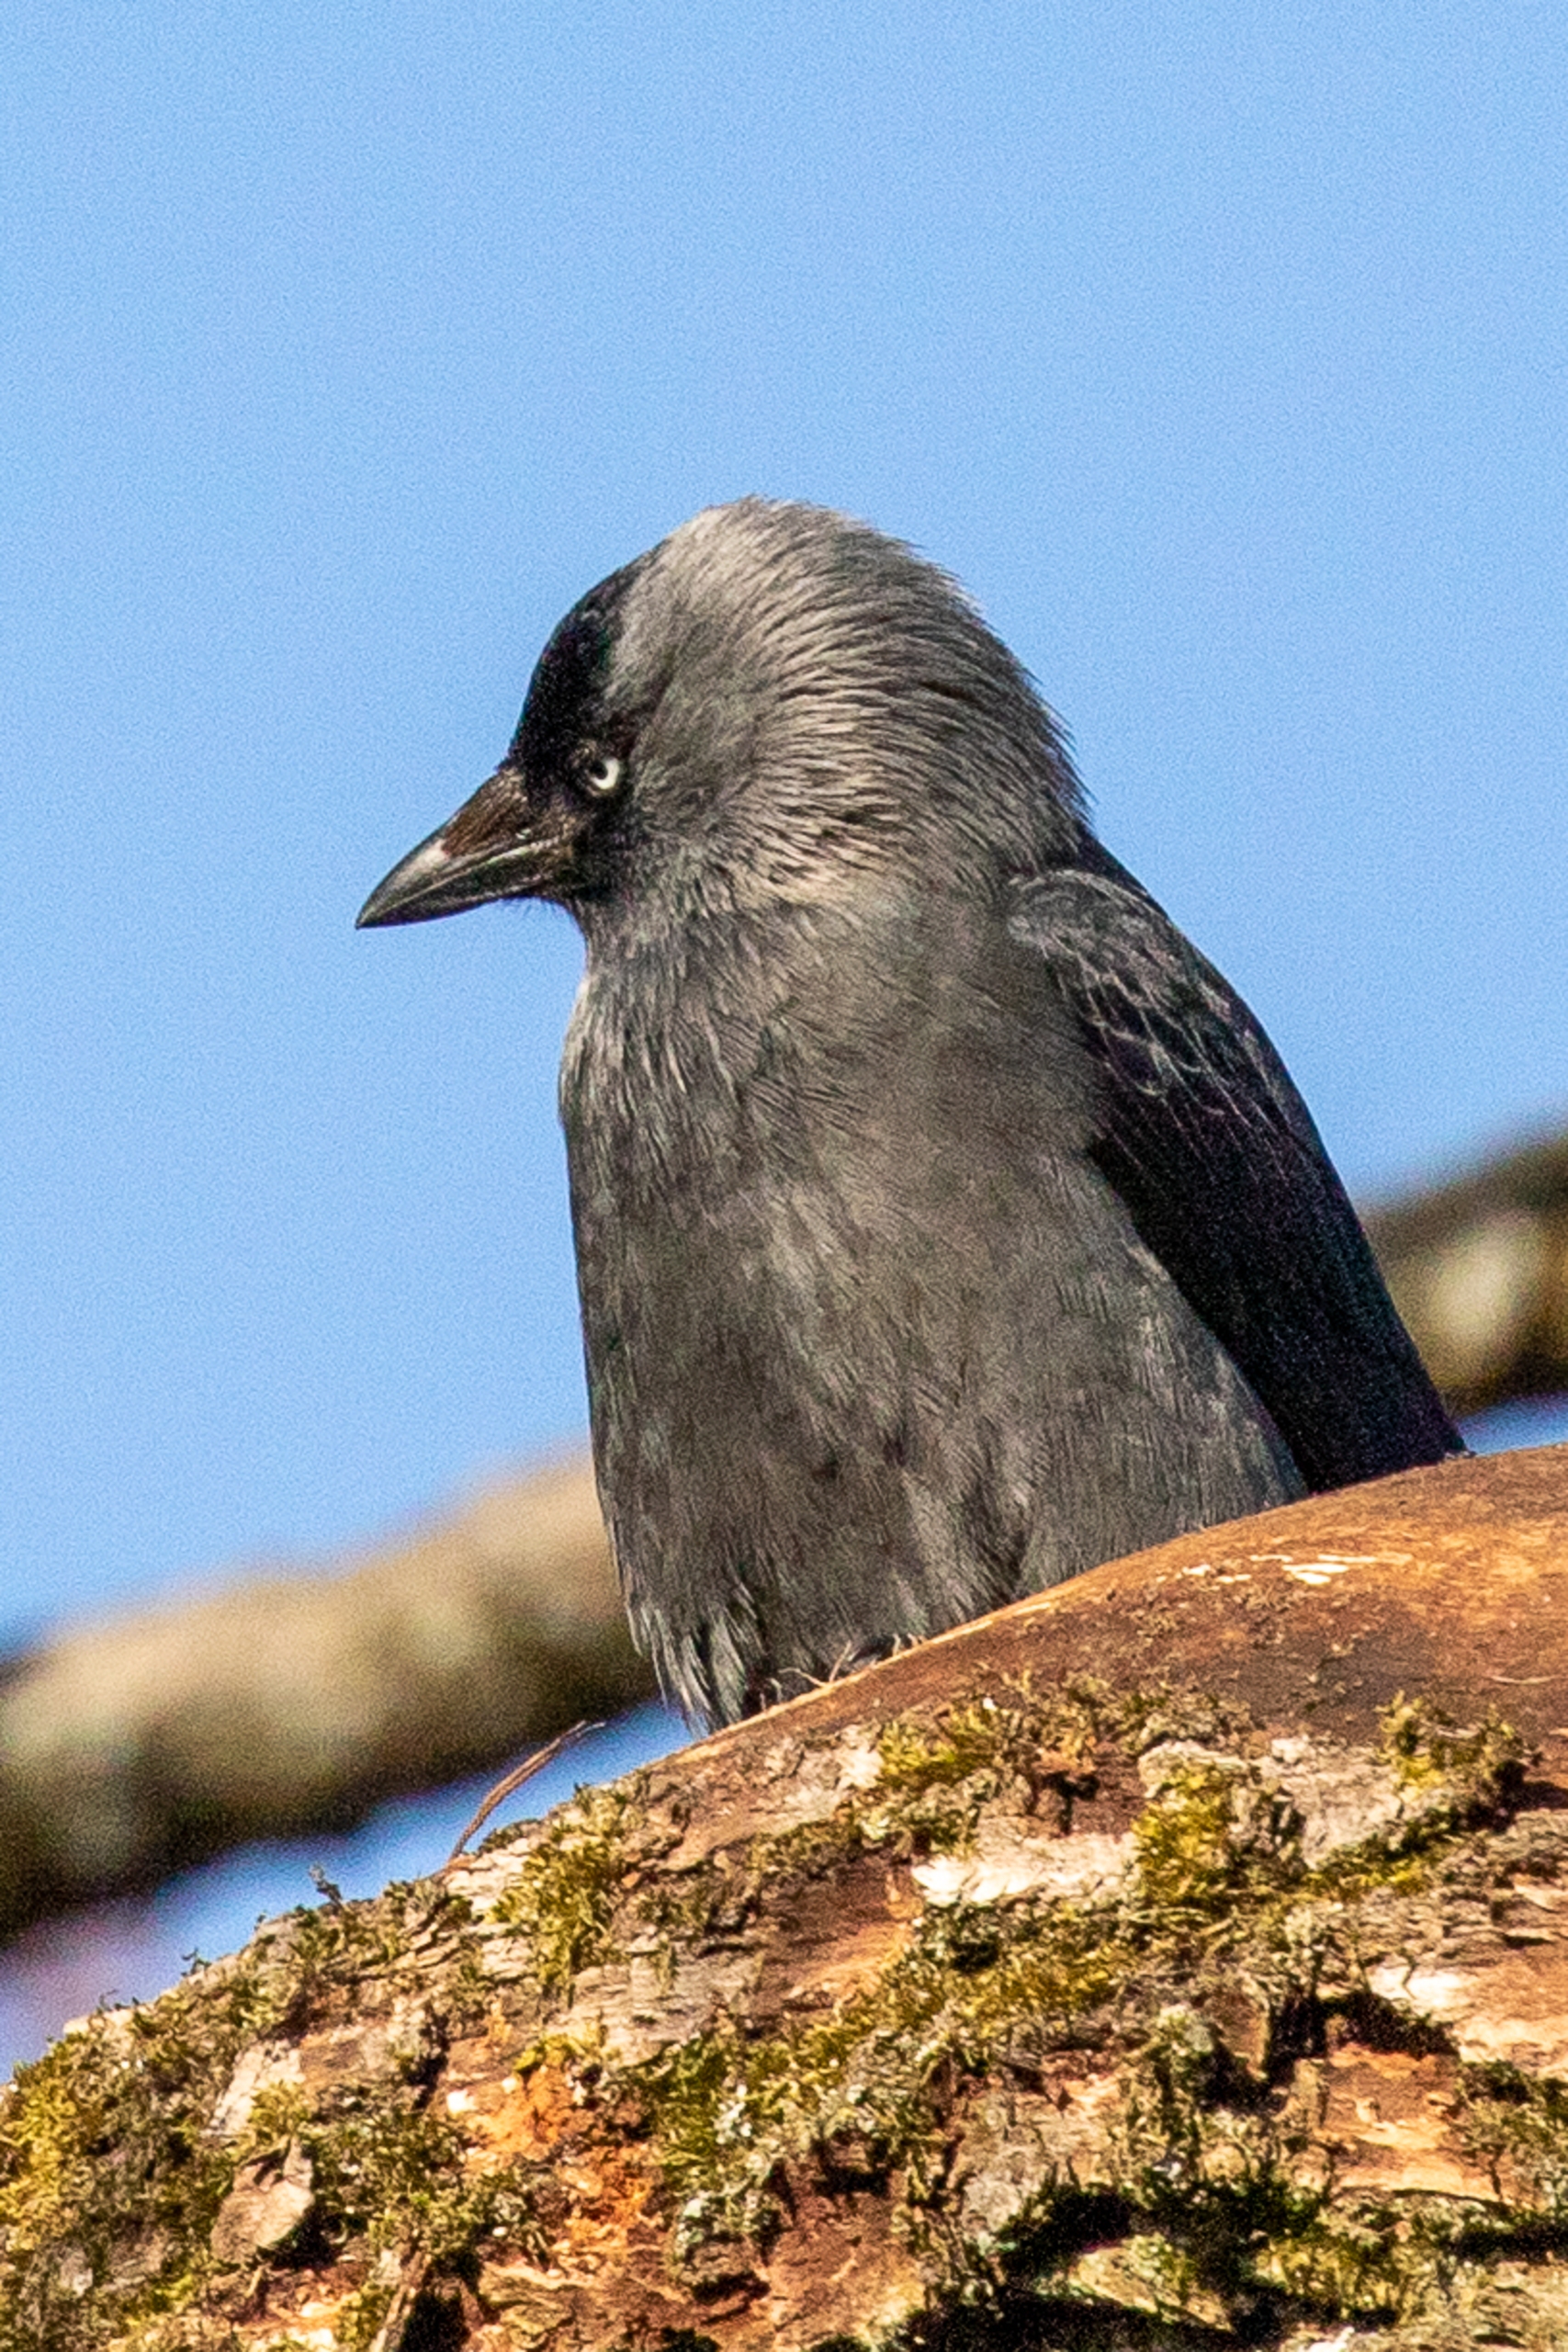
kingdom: Animalia
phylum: Chordata
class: Aves
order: Passeriformes
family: Corvidae
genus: Coloeus
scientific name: Coloeus monedula
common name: Allike
